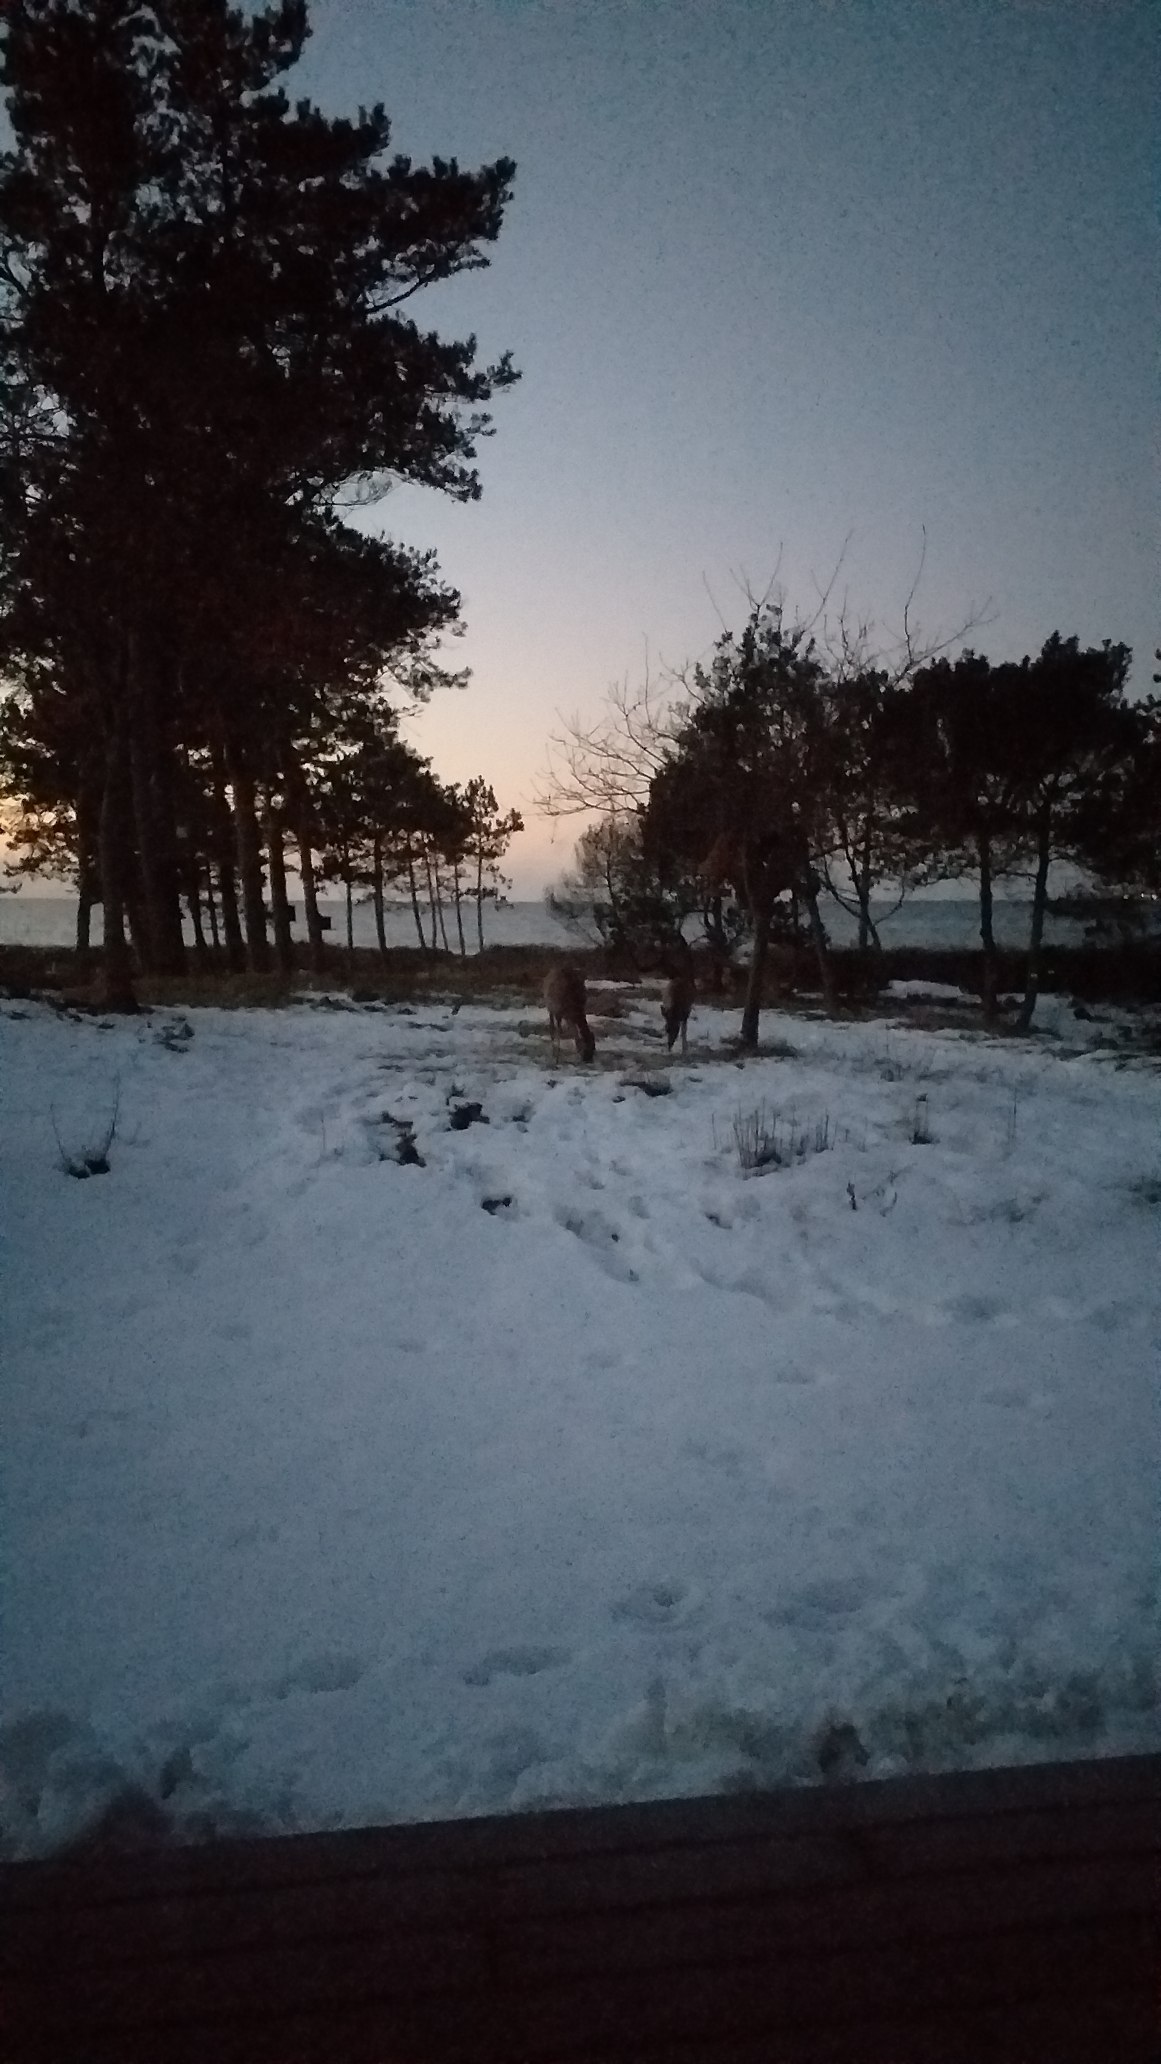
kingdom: Animalia
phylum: Chordata
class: Mammalia
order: Artiodactyla
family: Cervidae
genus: Capreolus
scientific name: Capreolus capreolus
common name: Rådyr
